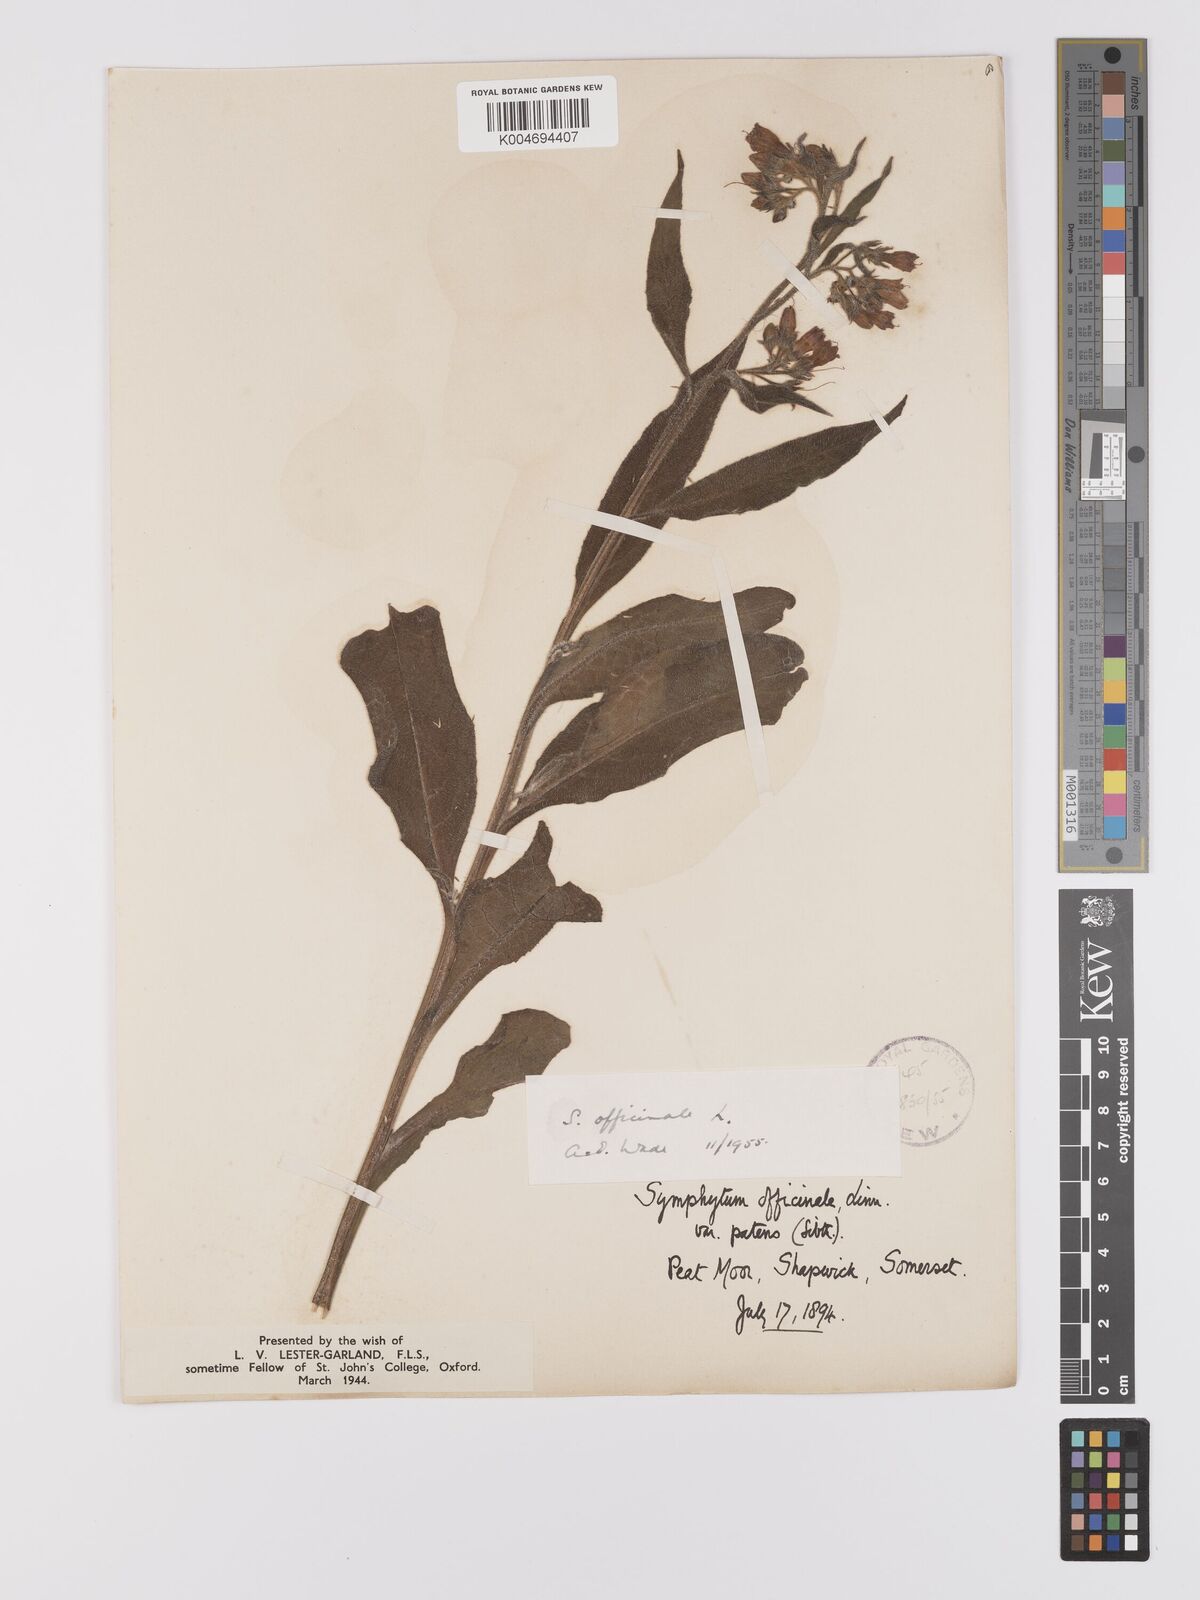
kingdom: Plantae
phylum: Tracheophyta
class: Magnoliopsida
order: Boraginales
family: Boraginaceae
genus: Symphytum
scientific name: Symphytum officinale
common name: Common comfrey
